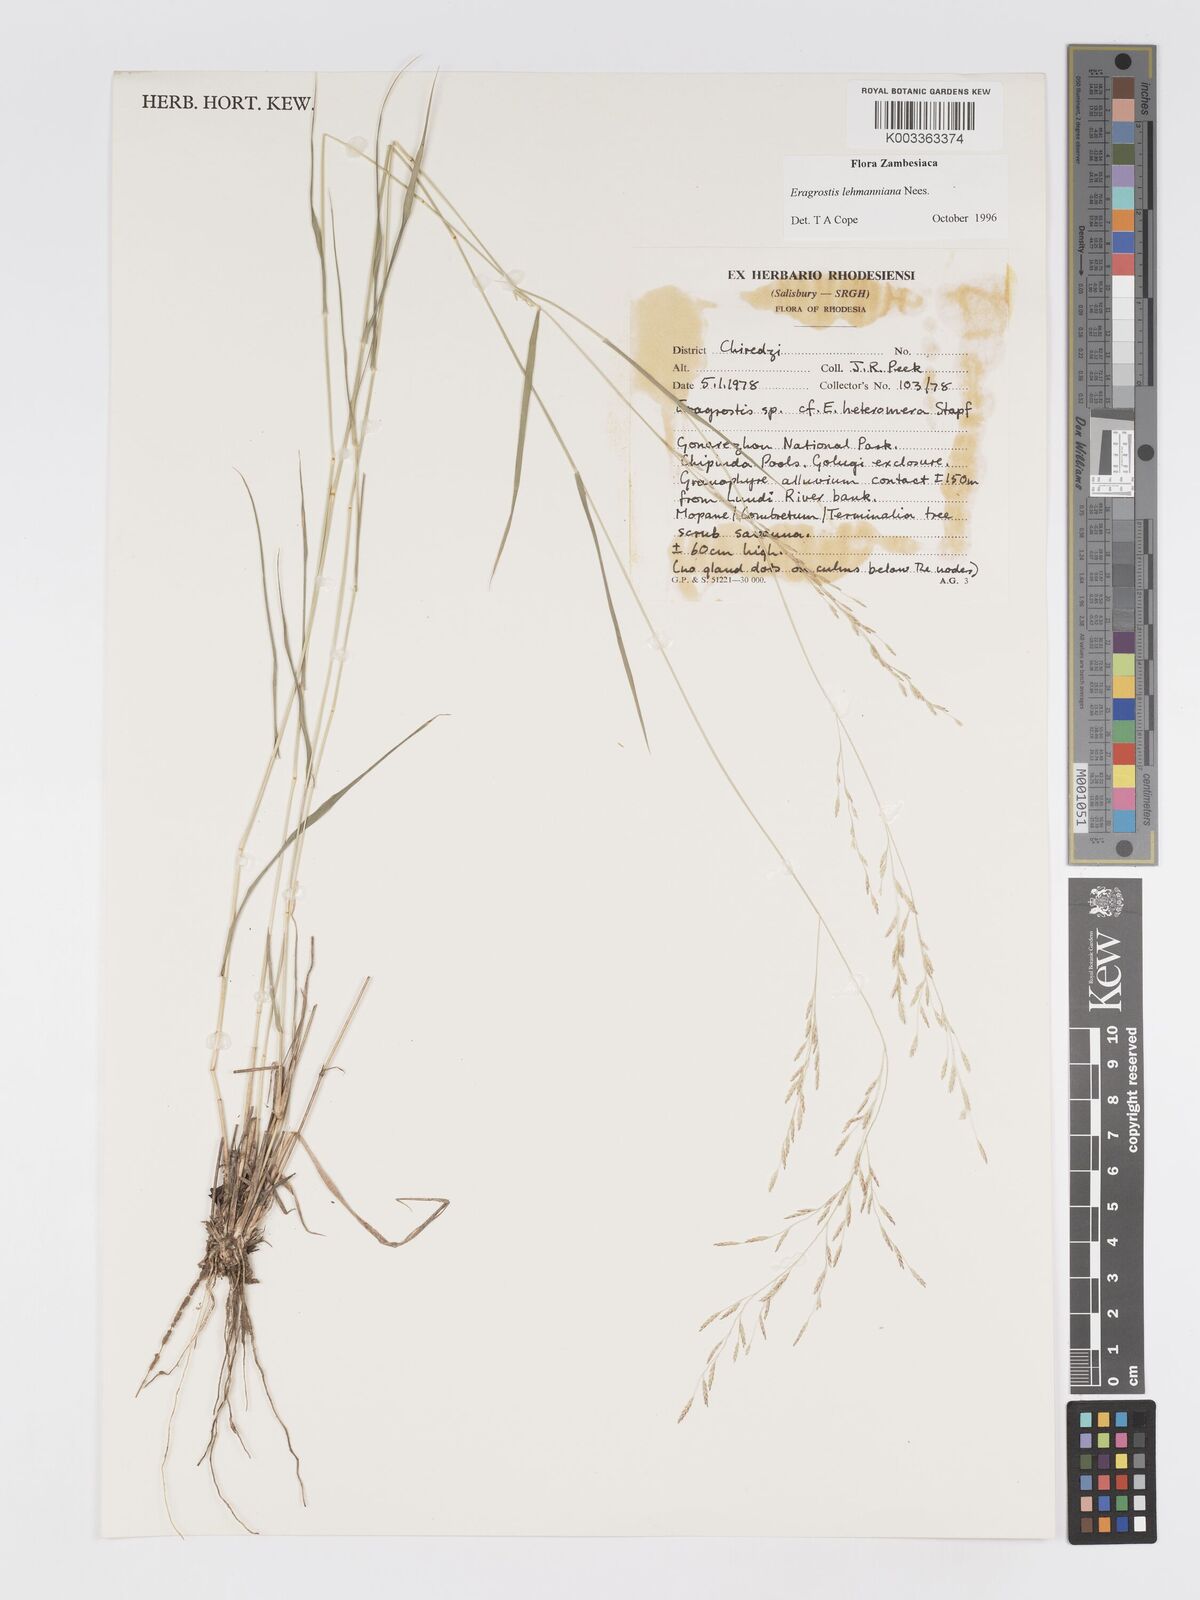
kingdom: Plantae
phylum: Tracheophyta
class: Liliopsida
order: Poales
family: Poaceae
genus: Eragrostis
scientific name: Eragrostis lehmanniana
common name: Lehmann lovegrass
